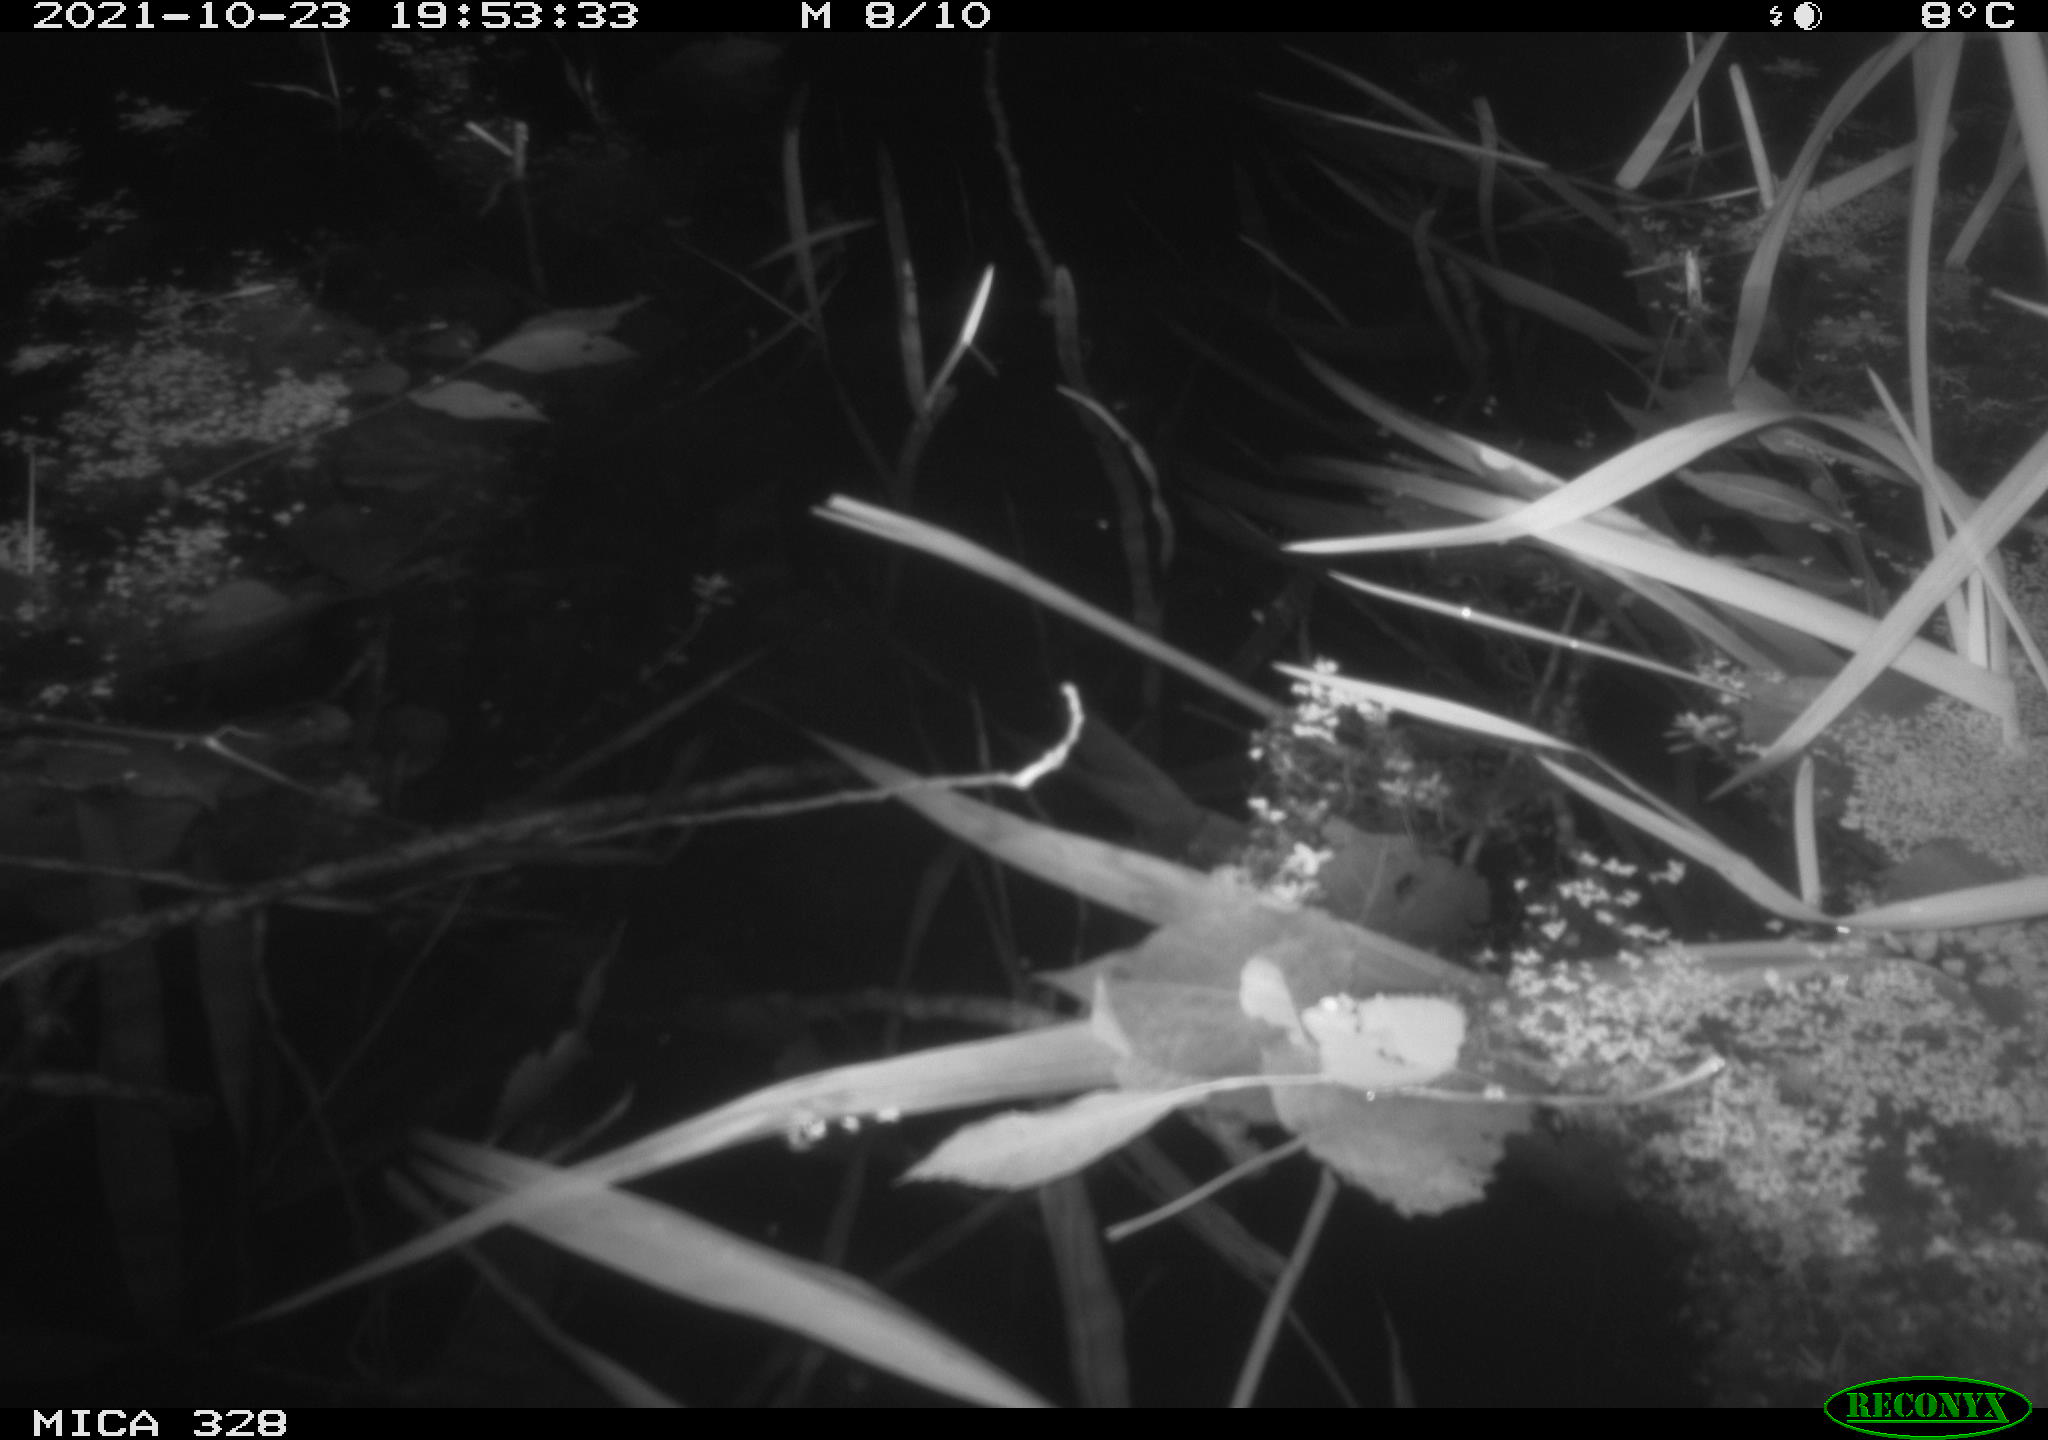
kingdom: Animalia
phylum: Chordata
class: Mammalia
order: Rodentia
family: Cricetidae
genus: Ondatra
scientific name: Ondatra zibethicus
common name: Muskrat
